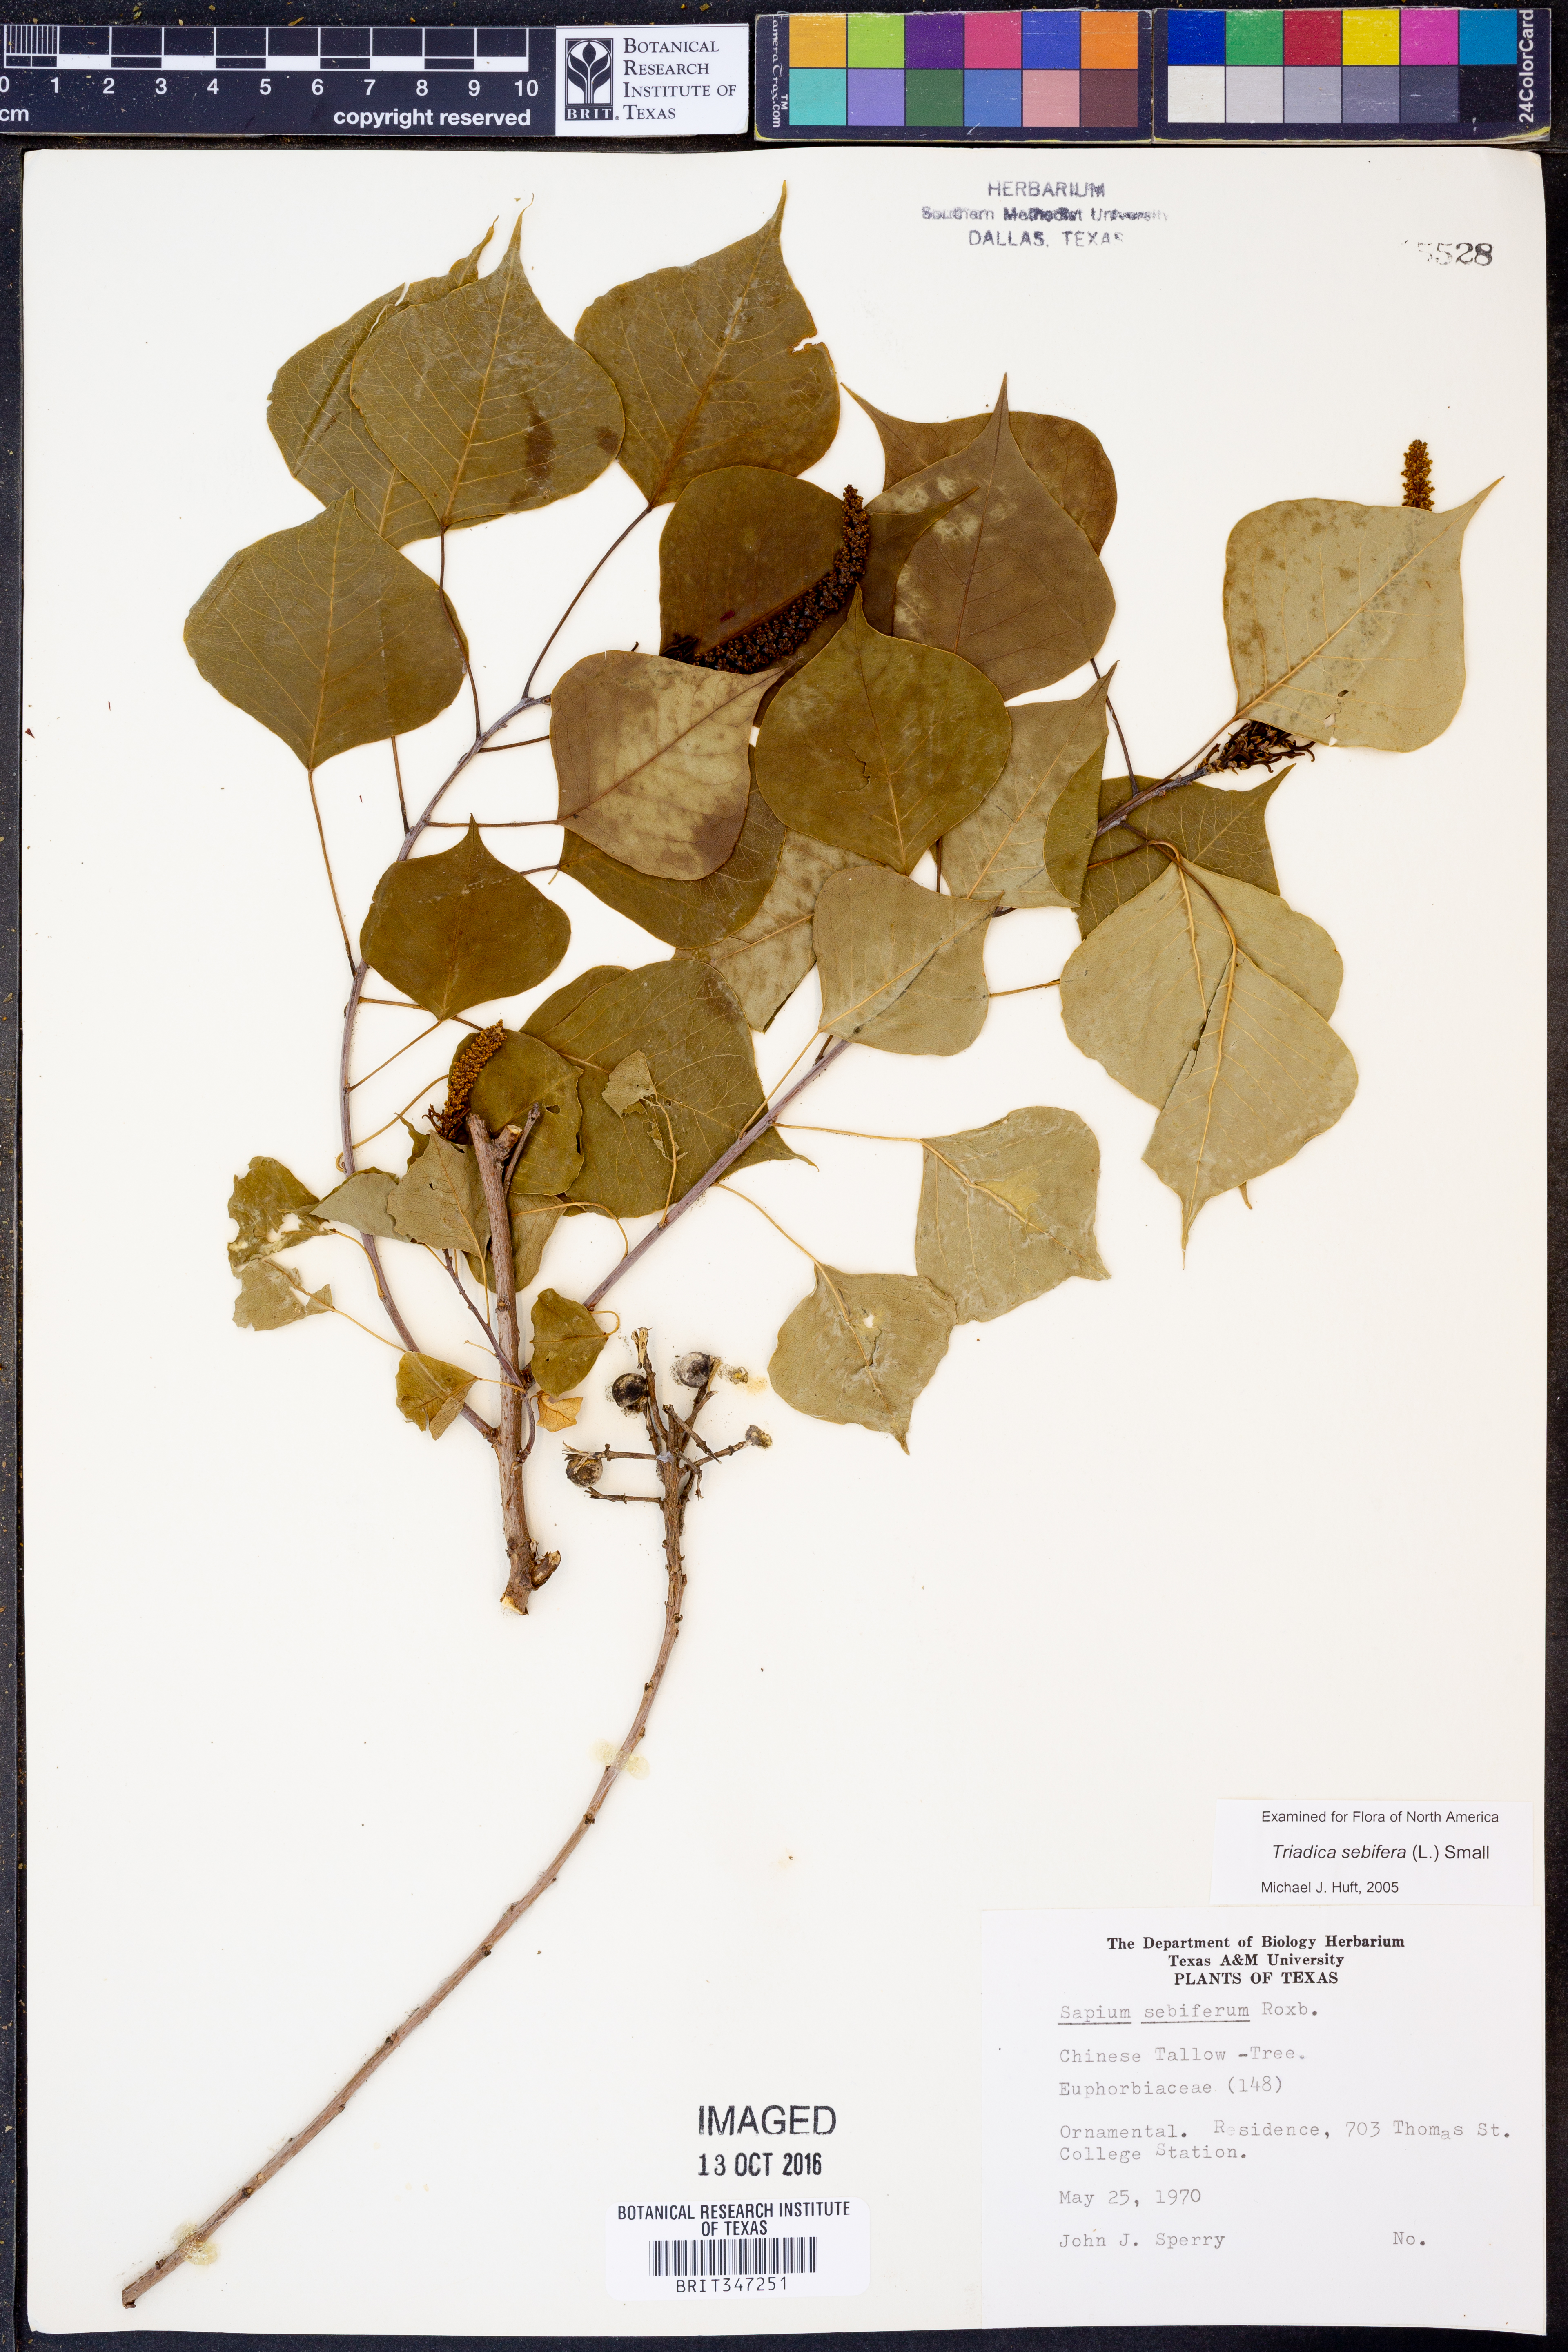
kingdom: Plantae
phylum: Tracheophyta
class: Magnoliopsida
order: Malpighiales
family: Euphorbiaceae
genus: Triadica
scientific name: Triadica sebifera
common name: Chinese tallow
